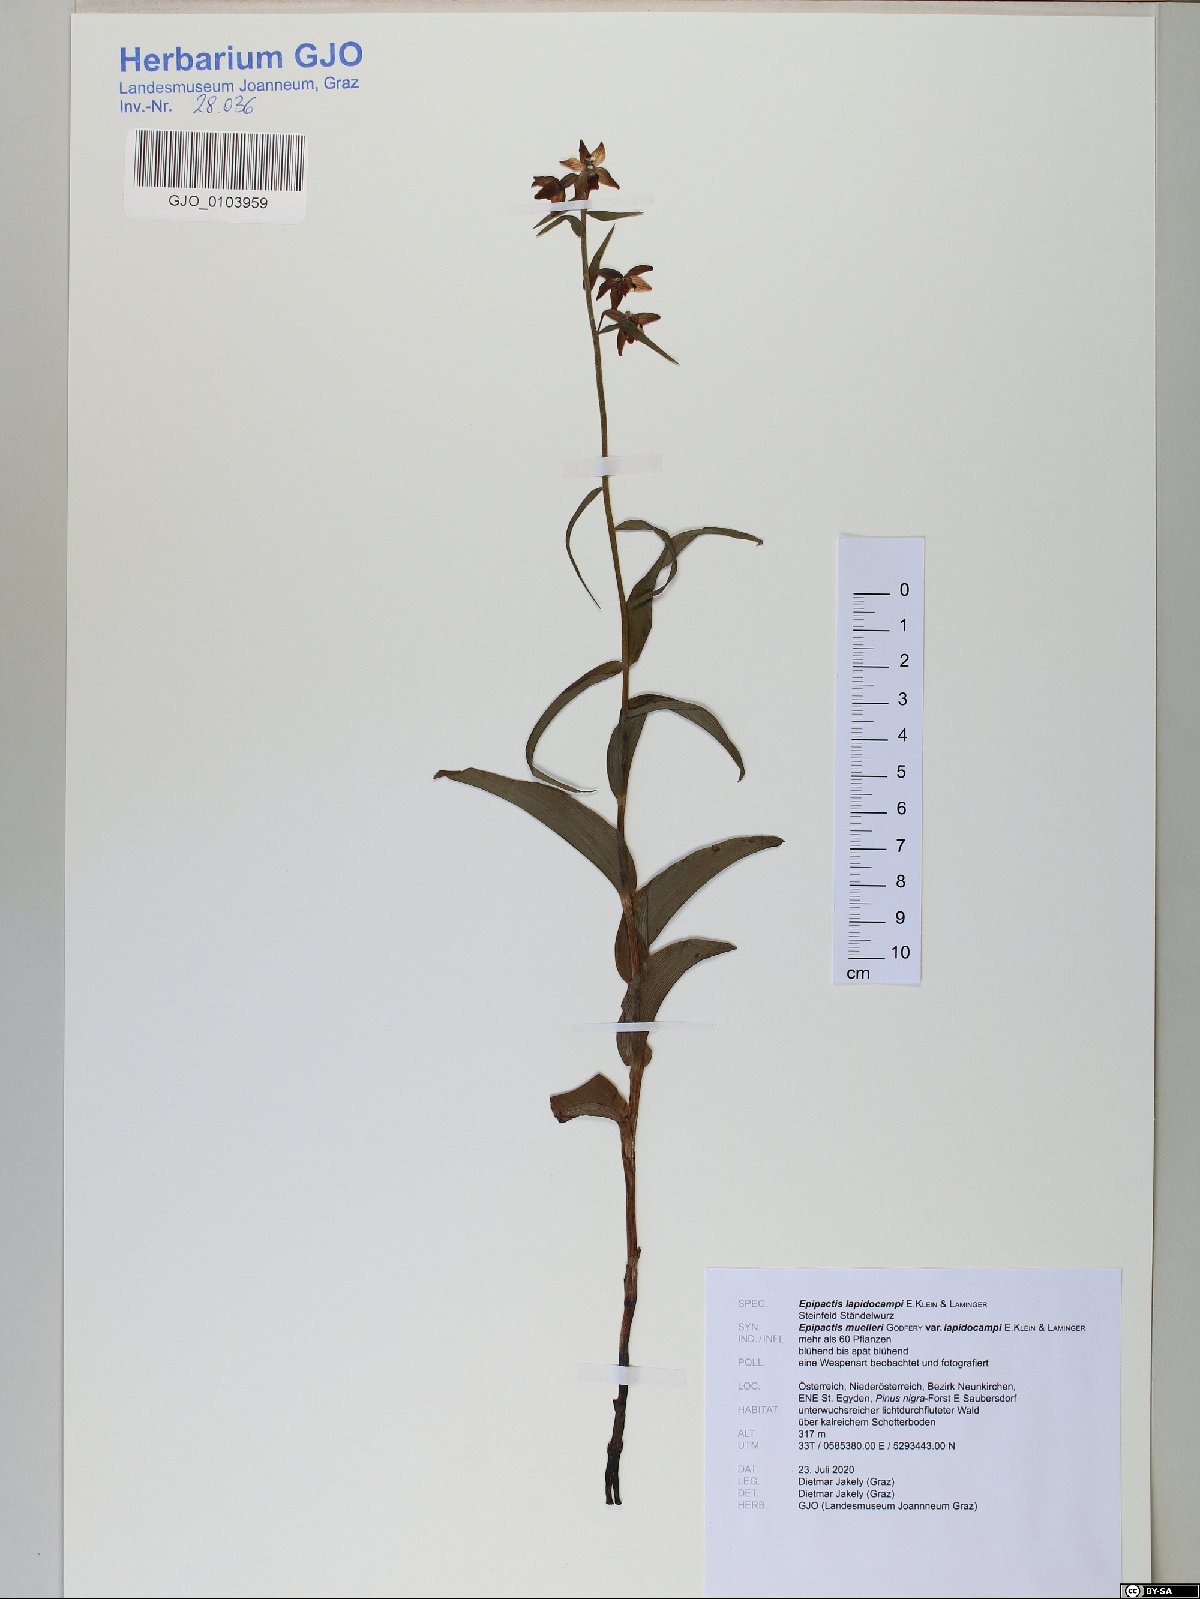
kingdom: Plantae
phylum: Tracheophyta
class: Liliopsida
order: Asparagales
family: Orchidaceae
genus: Epipactis
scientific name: Epipactis muelleri
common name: Mueller's epipactis
